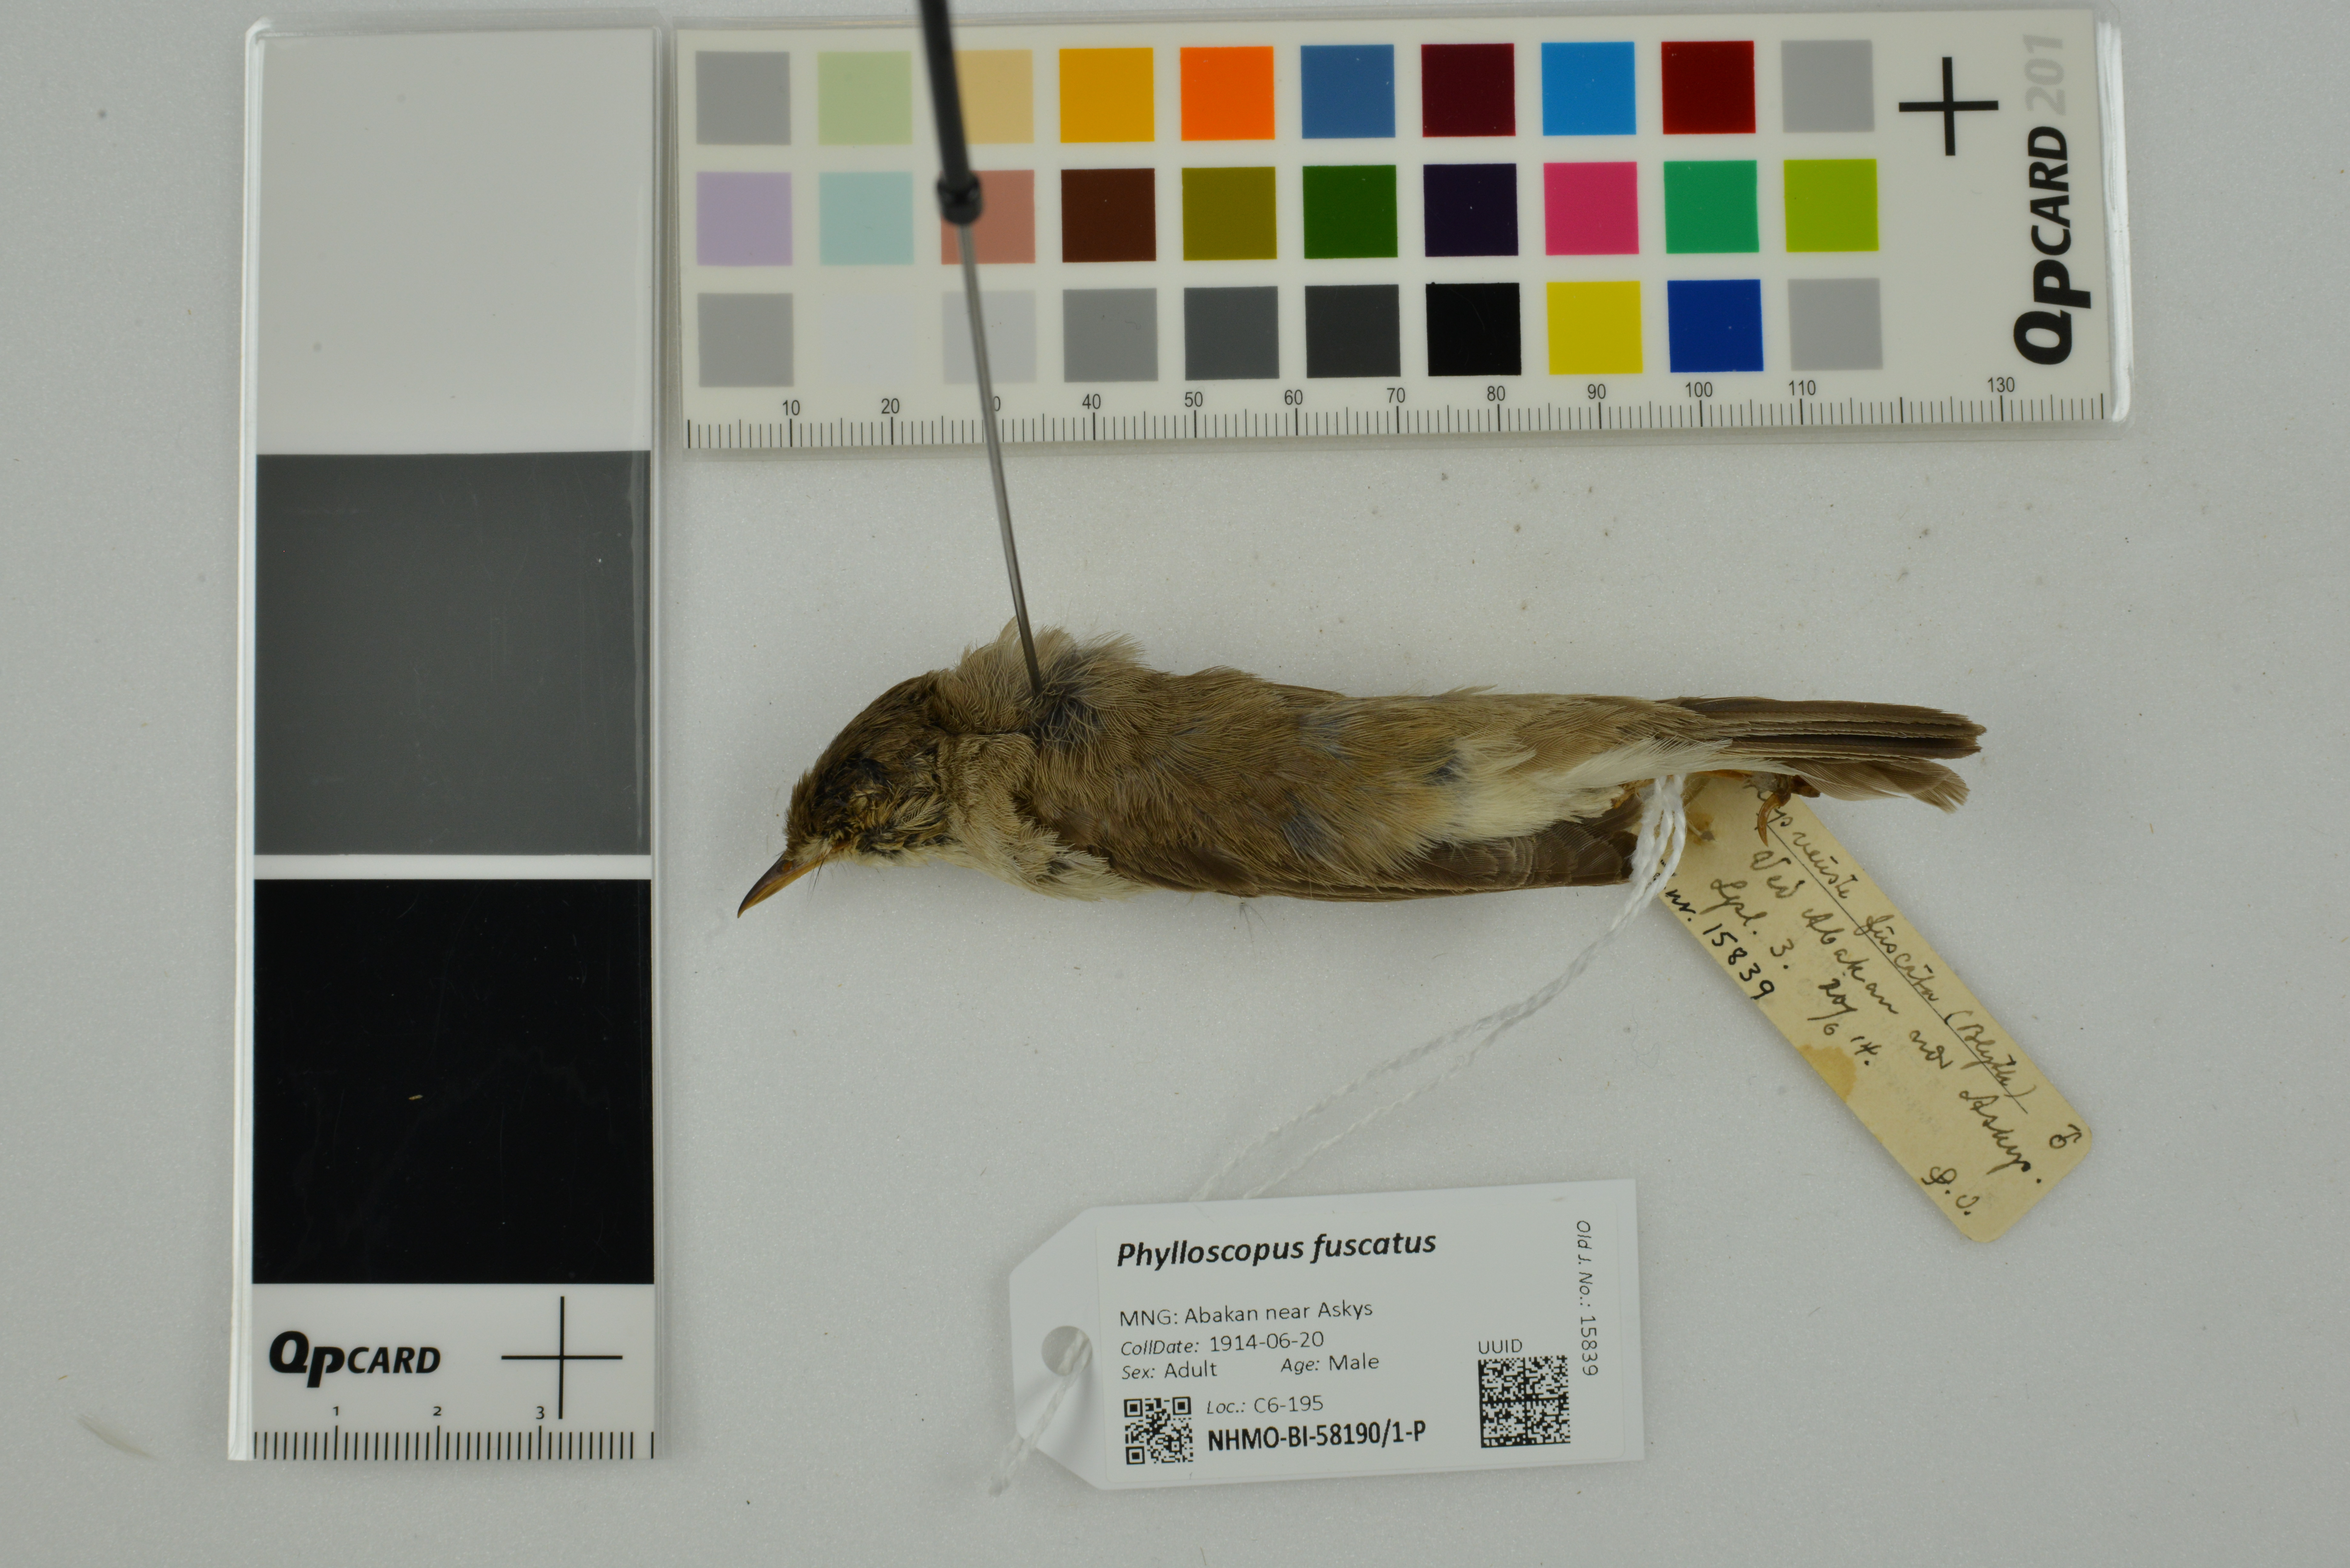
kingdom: Animalia
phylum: Chordata
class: Aves
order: Passeriformes
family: Phylloscopidae
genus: Phylloscopus
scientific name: Phylloscopus fuscatus
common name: Dusky warbler
